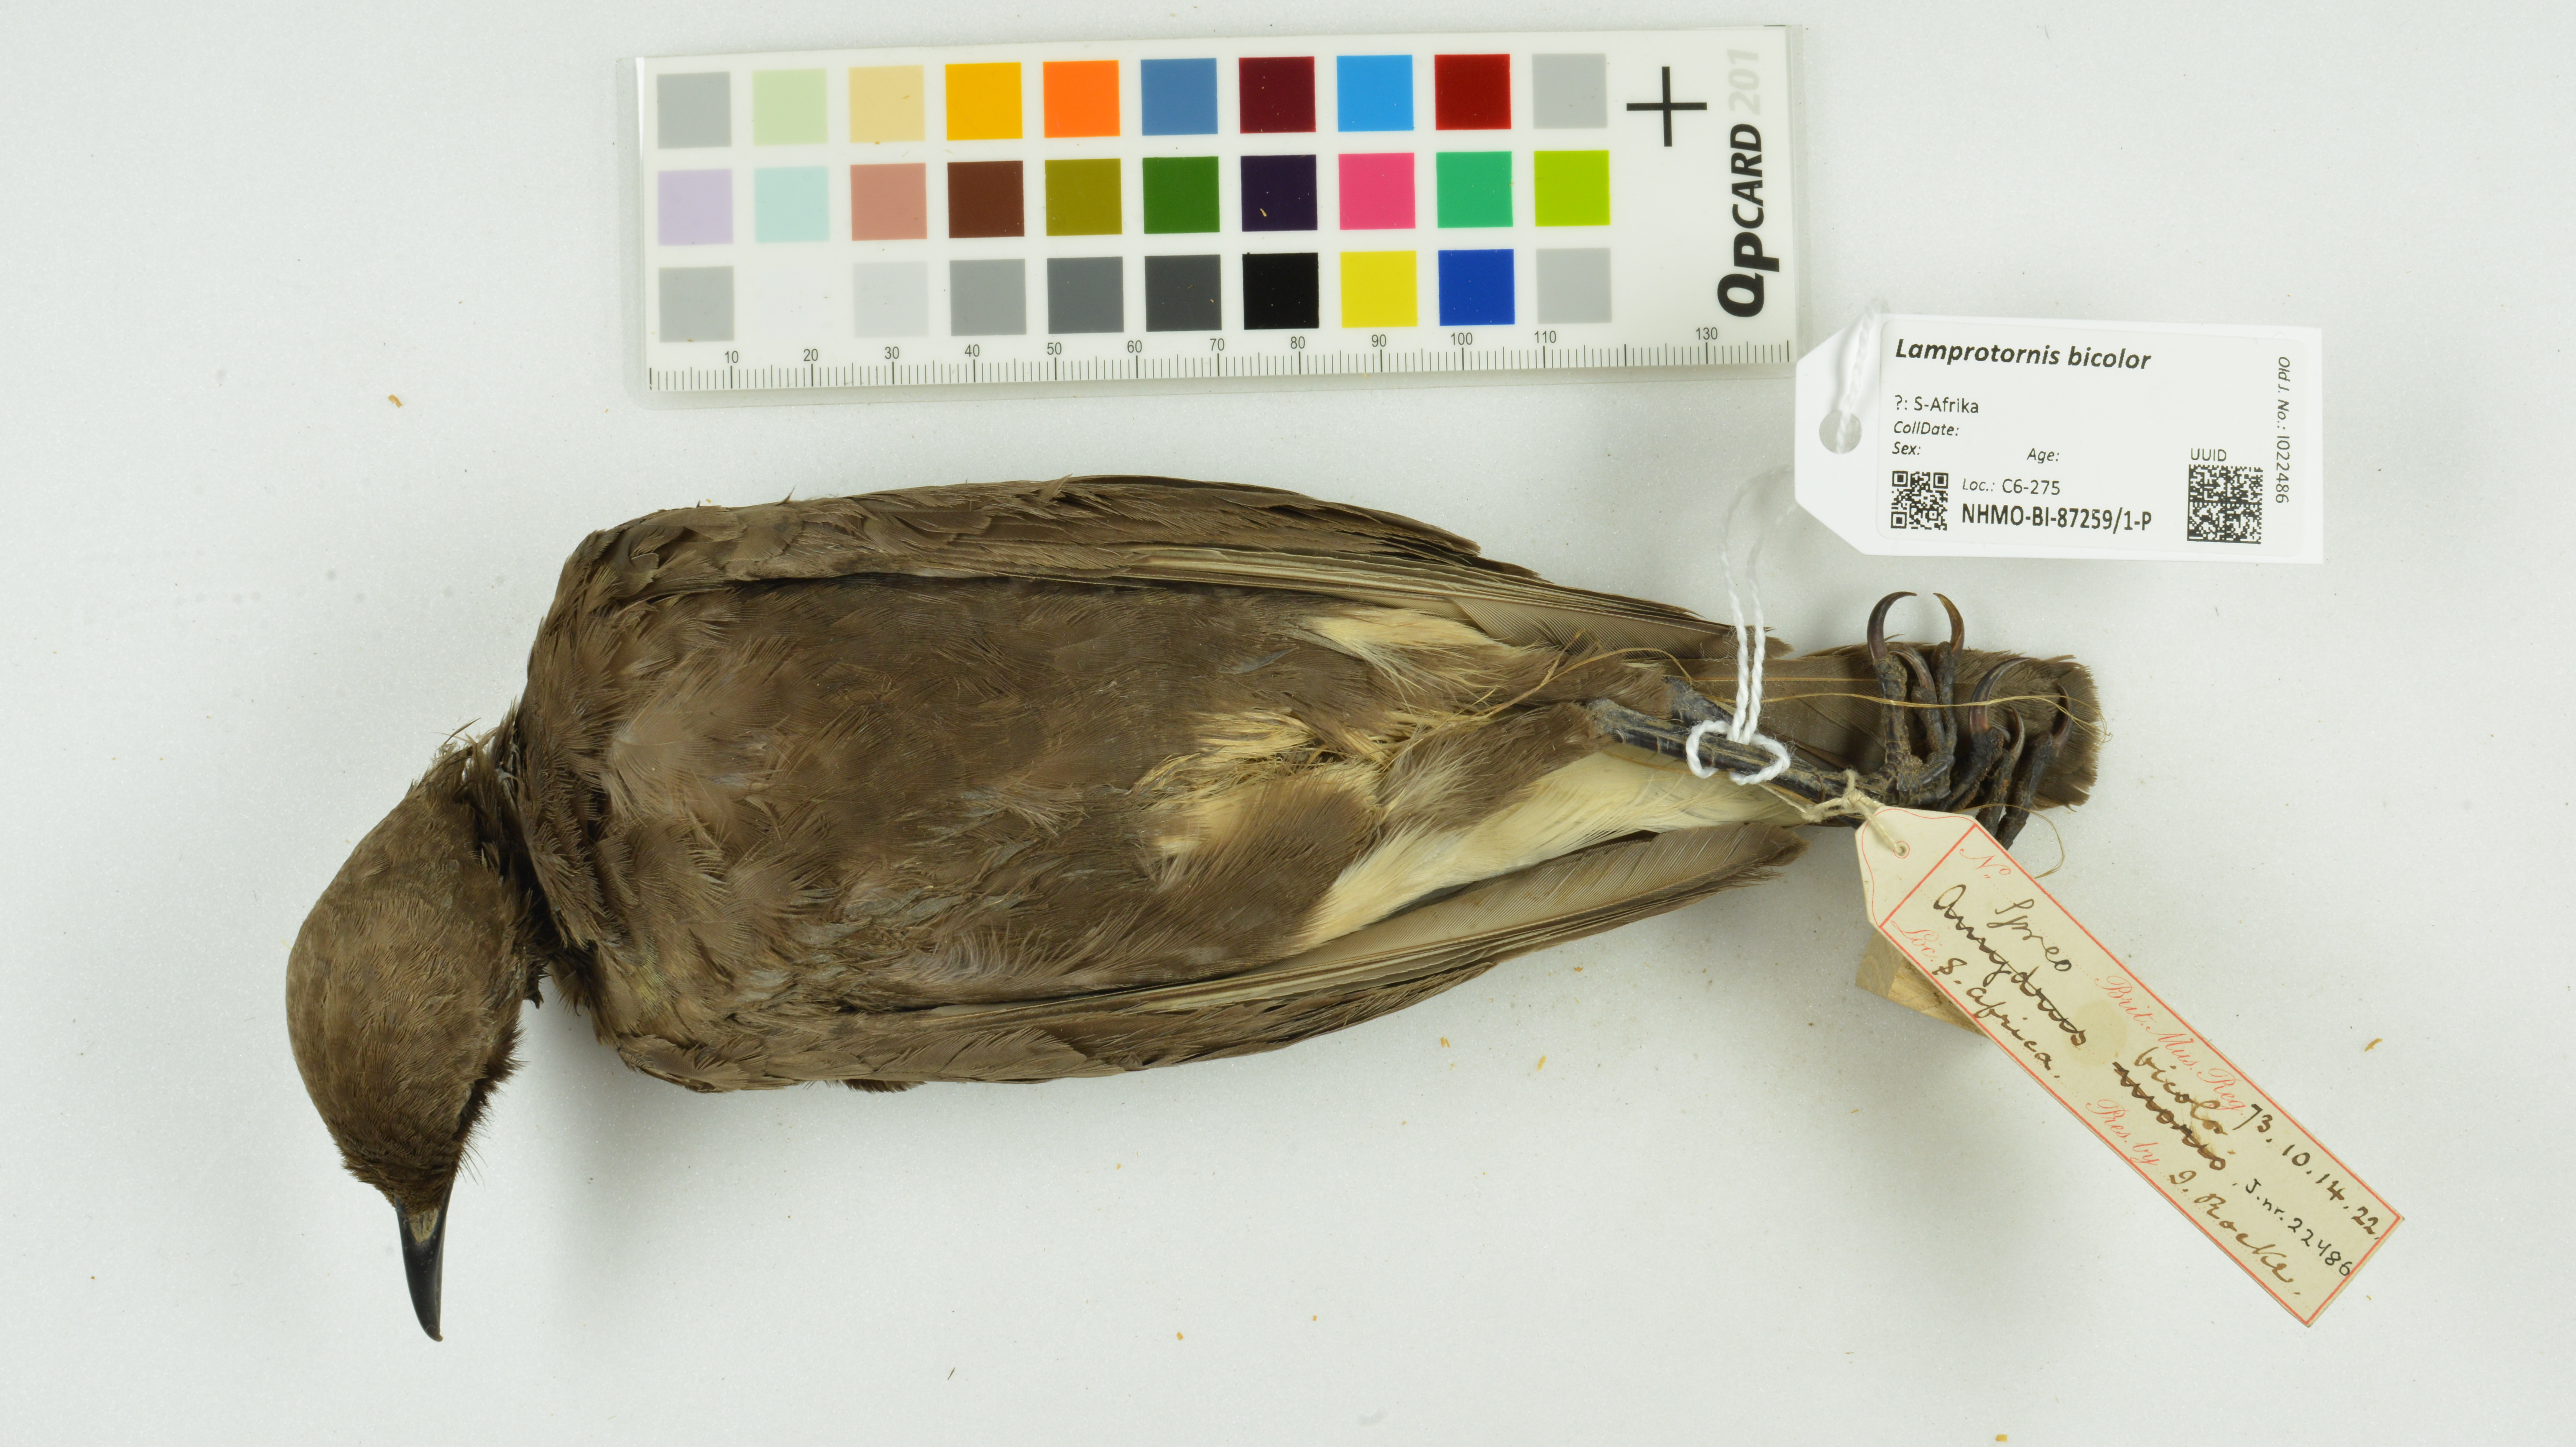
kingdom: Animalia
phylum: Chordata
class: Aves
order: Passeriformes
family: Sturnidae
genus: Lamprotornis
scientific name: Lamprotornis bicolor
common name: Pied starling
